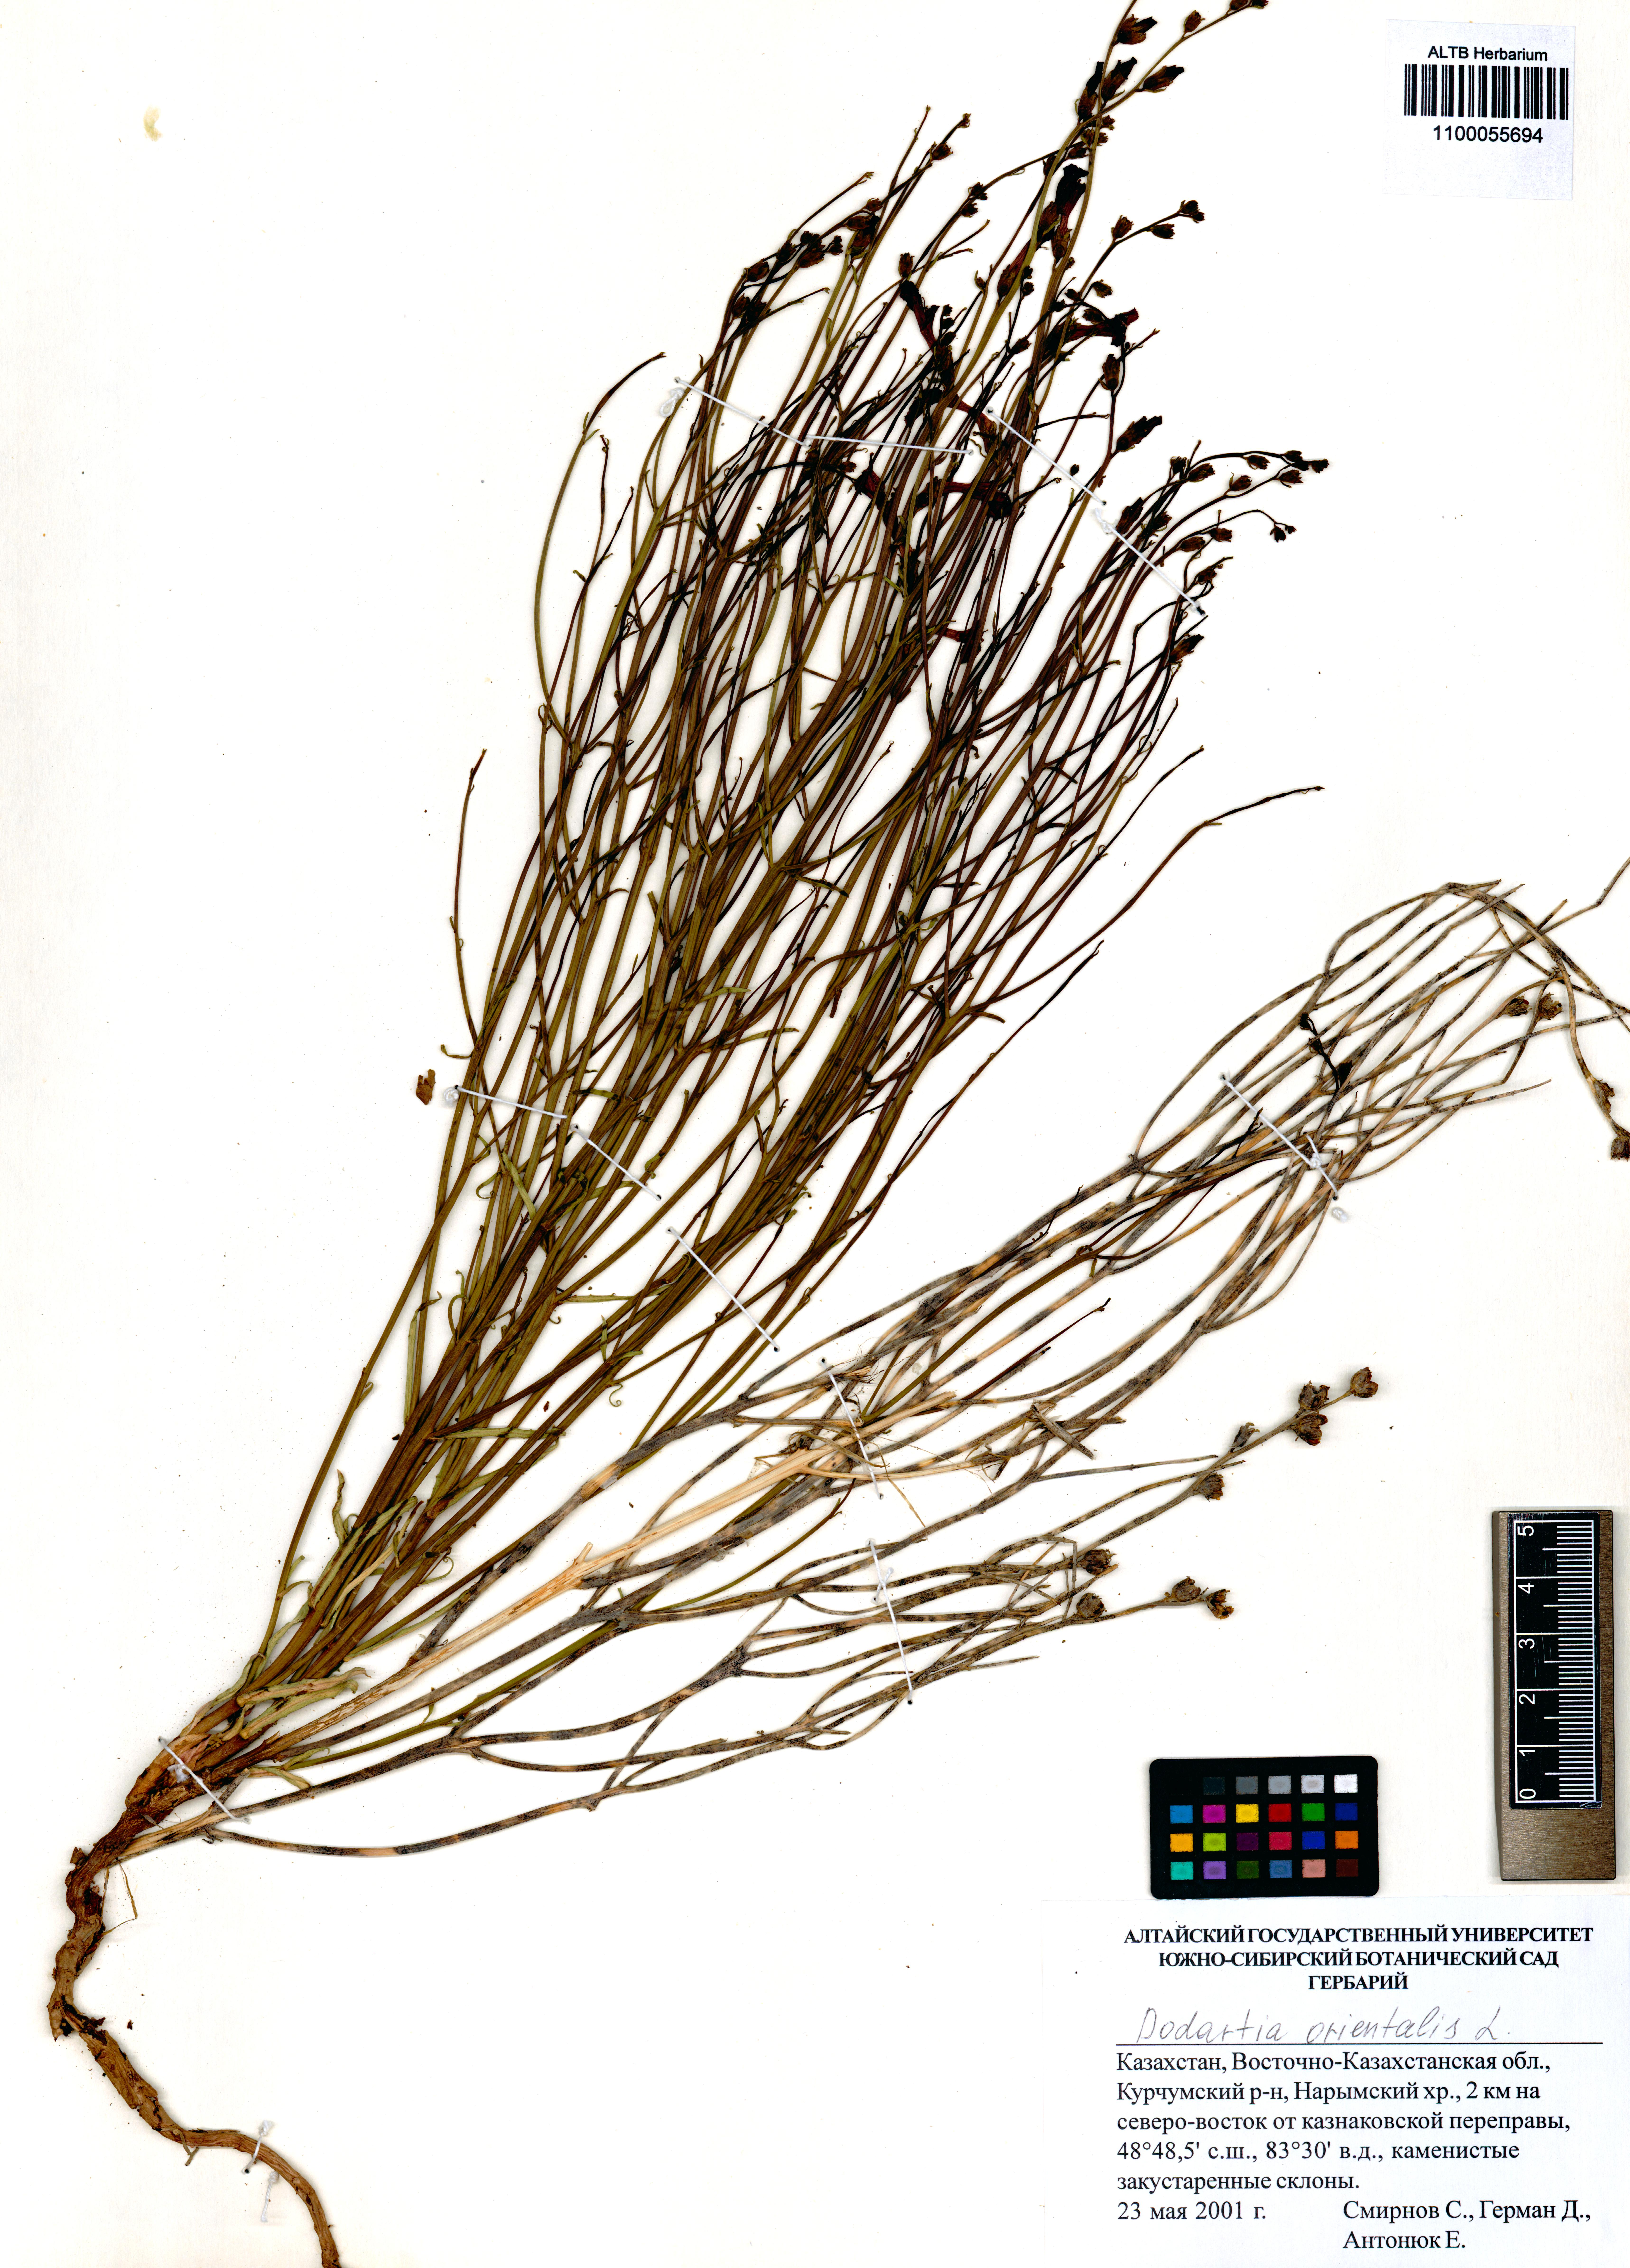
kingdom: Plantae
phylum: Tracheophyta
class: Magnoliopsida
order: Lamiales
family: Mazaceae
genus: Dodartia
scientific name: Dodartia orientalis
